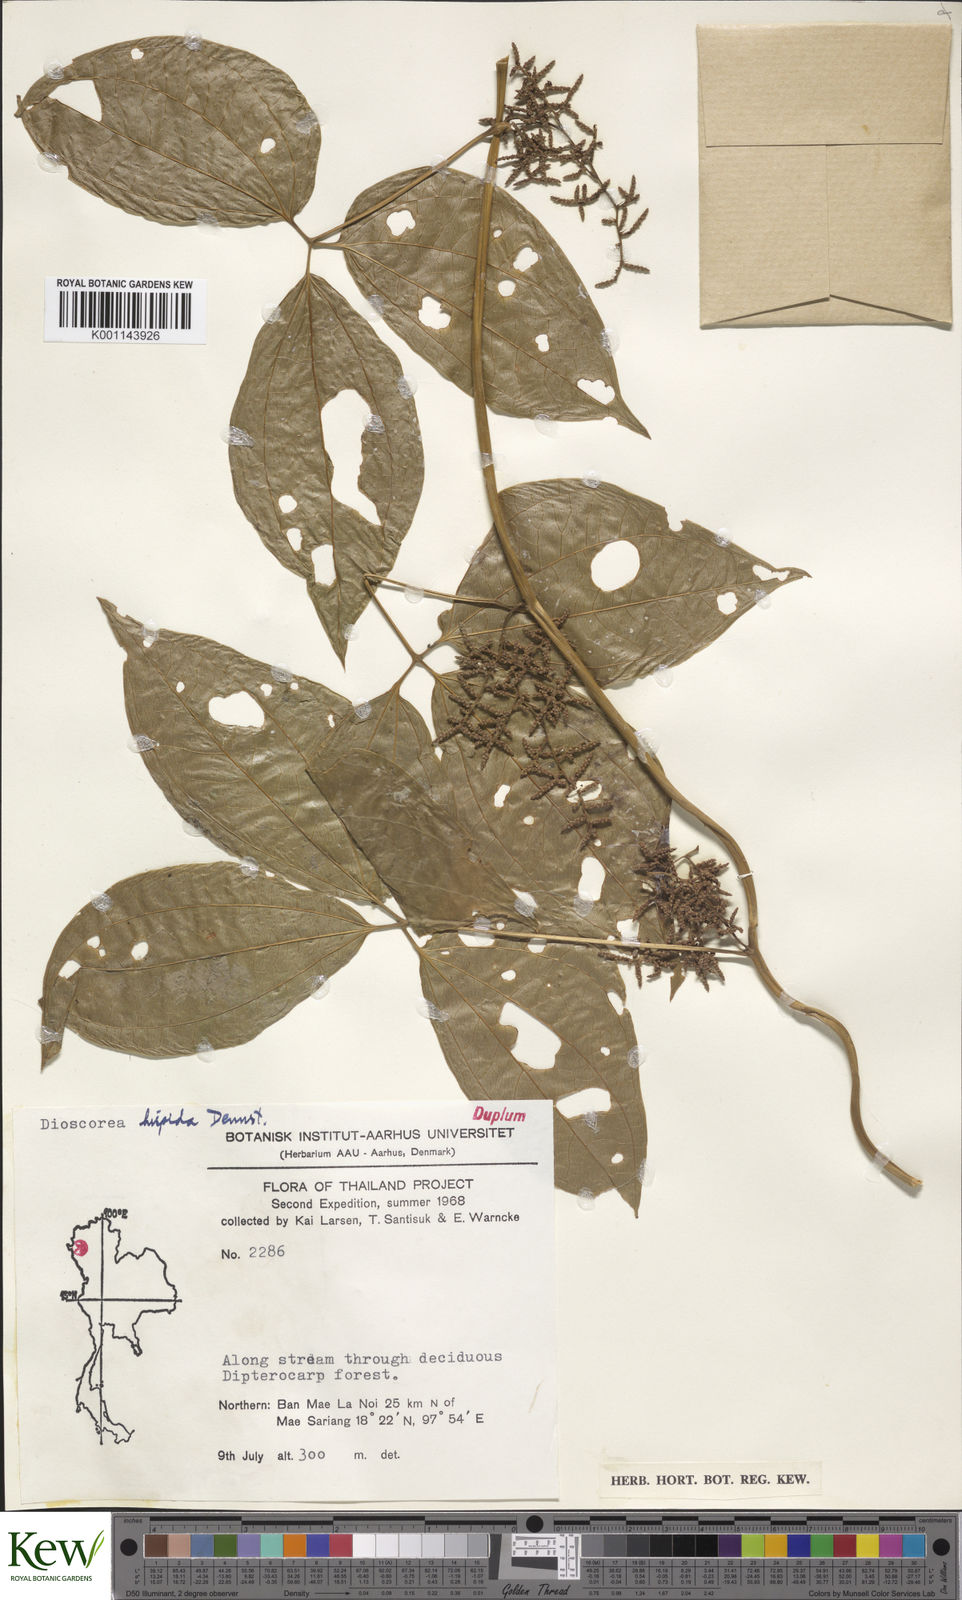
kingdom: Plantae
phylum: Tracheophyta
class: Liliopsida
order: Dioscoreales
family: Dioscoreaceae
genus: Dioscorea
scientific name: Dioscorea hispida
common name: Asiatic bitter yam
